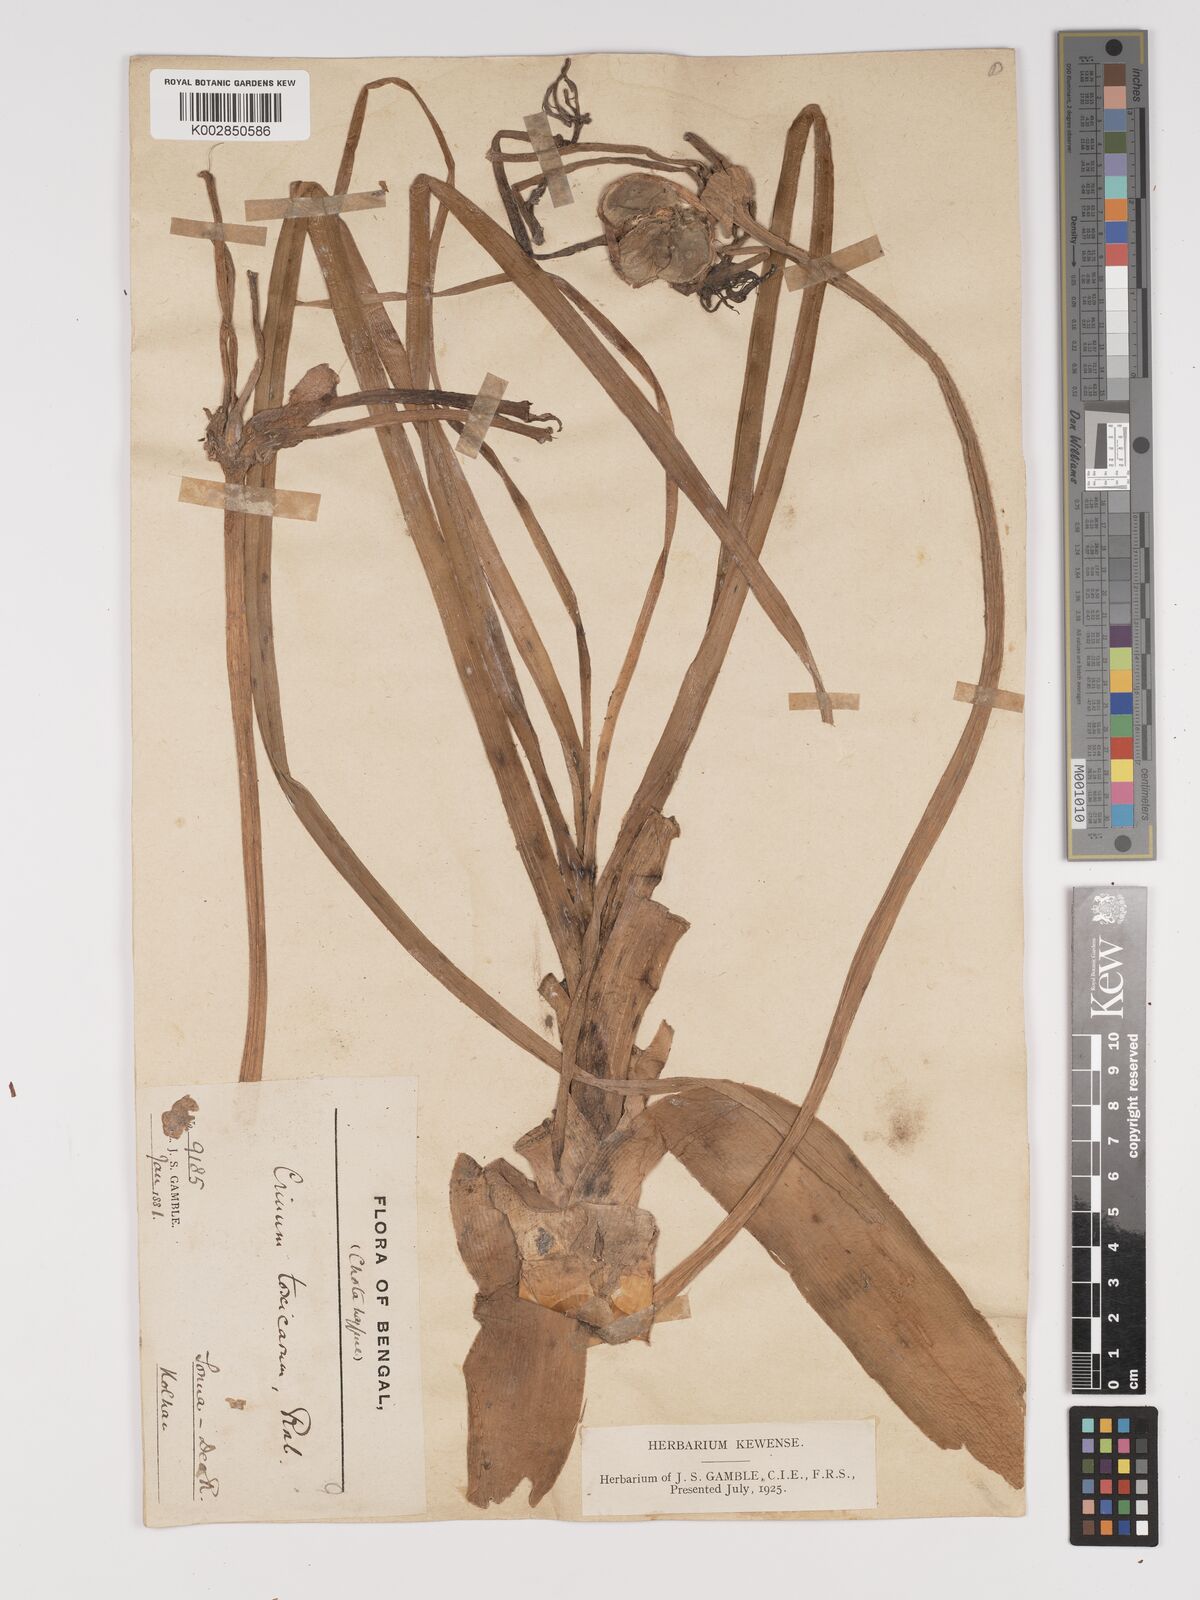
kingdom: Plantae
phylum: Tracheophyta
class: Liliopsida
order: Asparagales
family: Amaryllidaceae
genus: Crinum
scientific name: Crinum asiaticum
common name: Poisonbulb
